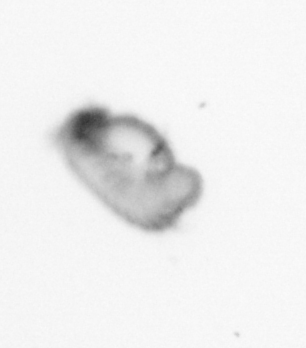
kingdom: Animalia
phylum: Annelida
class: Polychaeta
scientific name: Polychaeta
